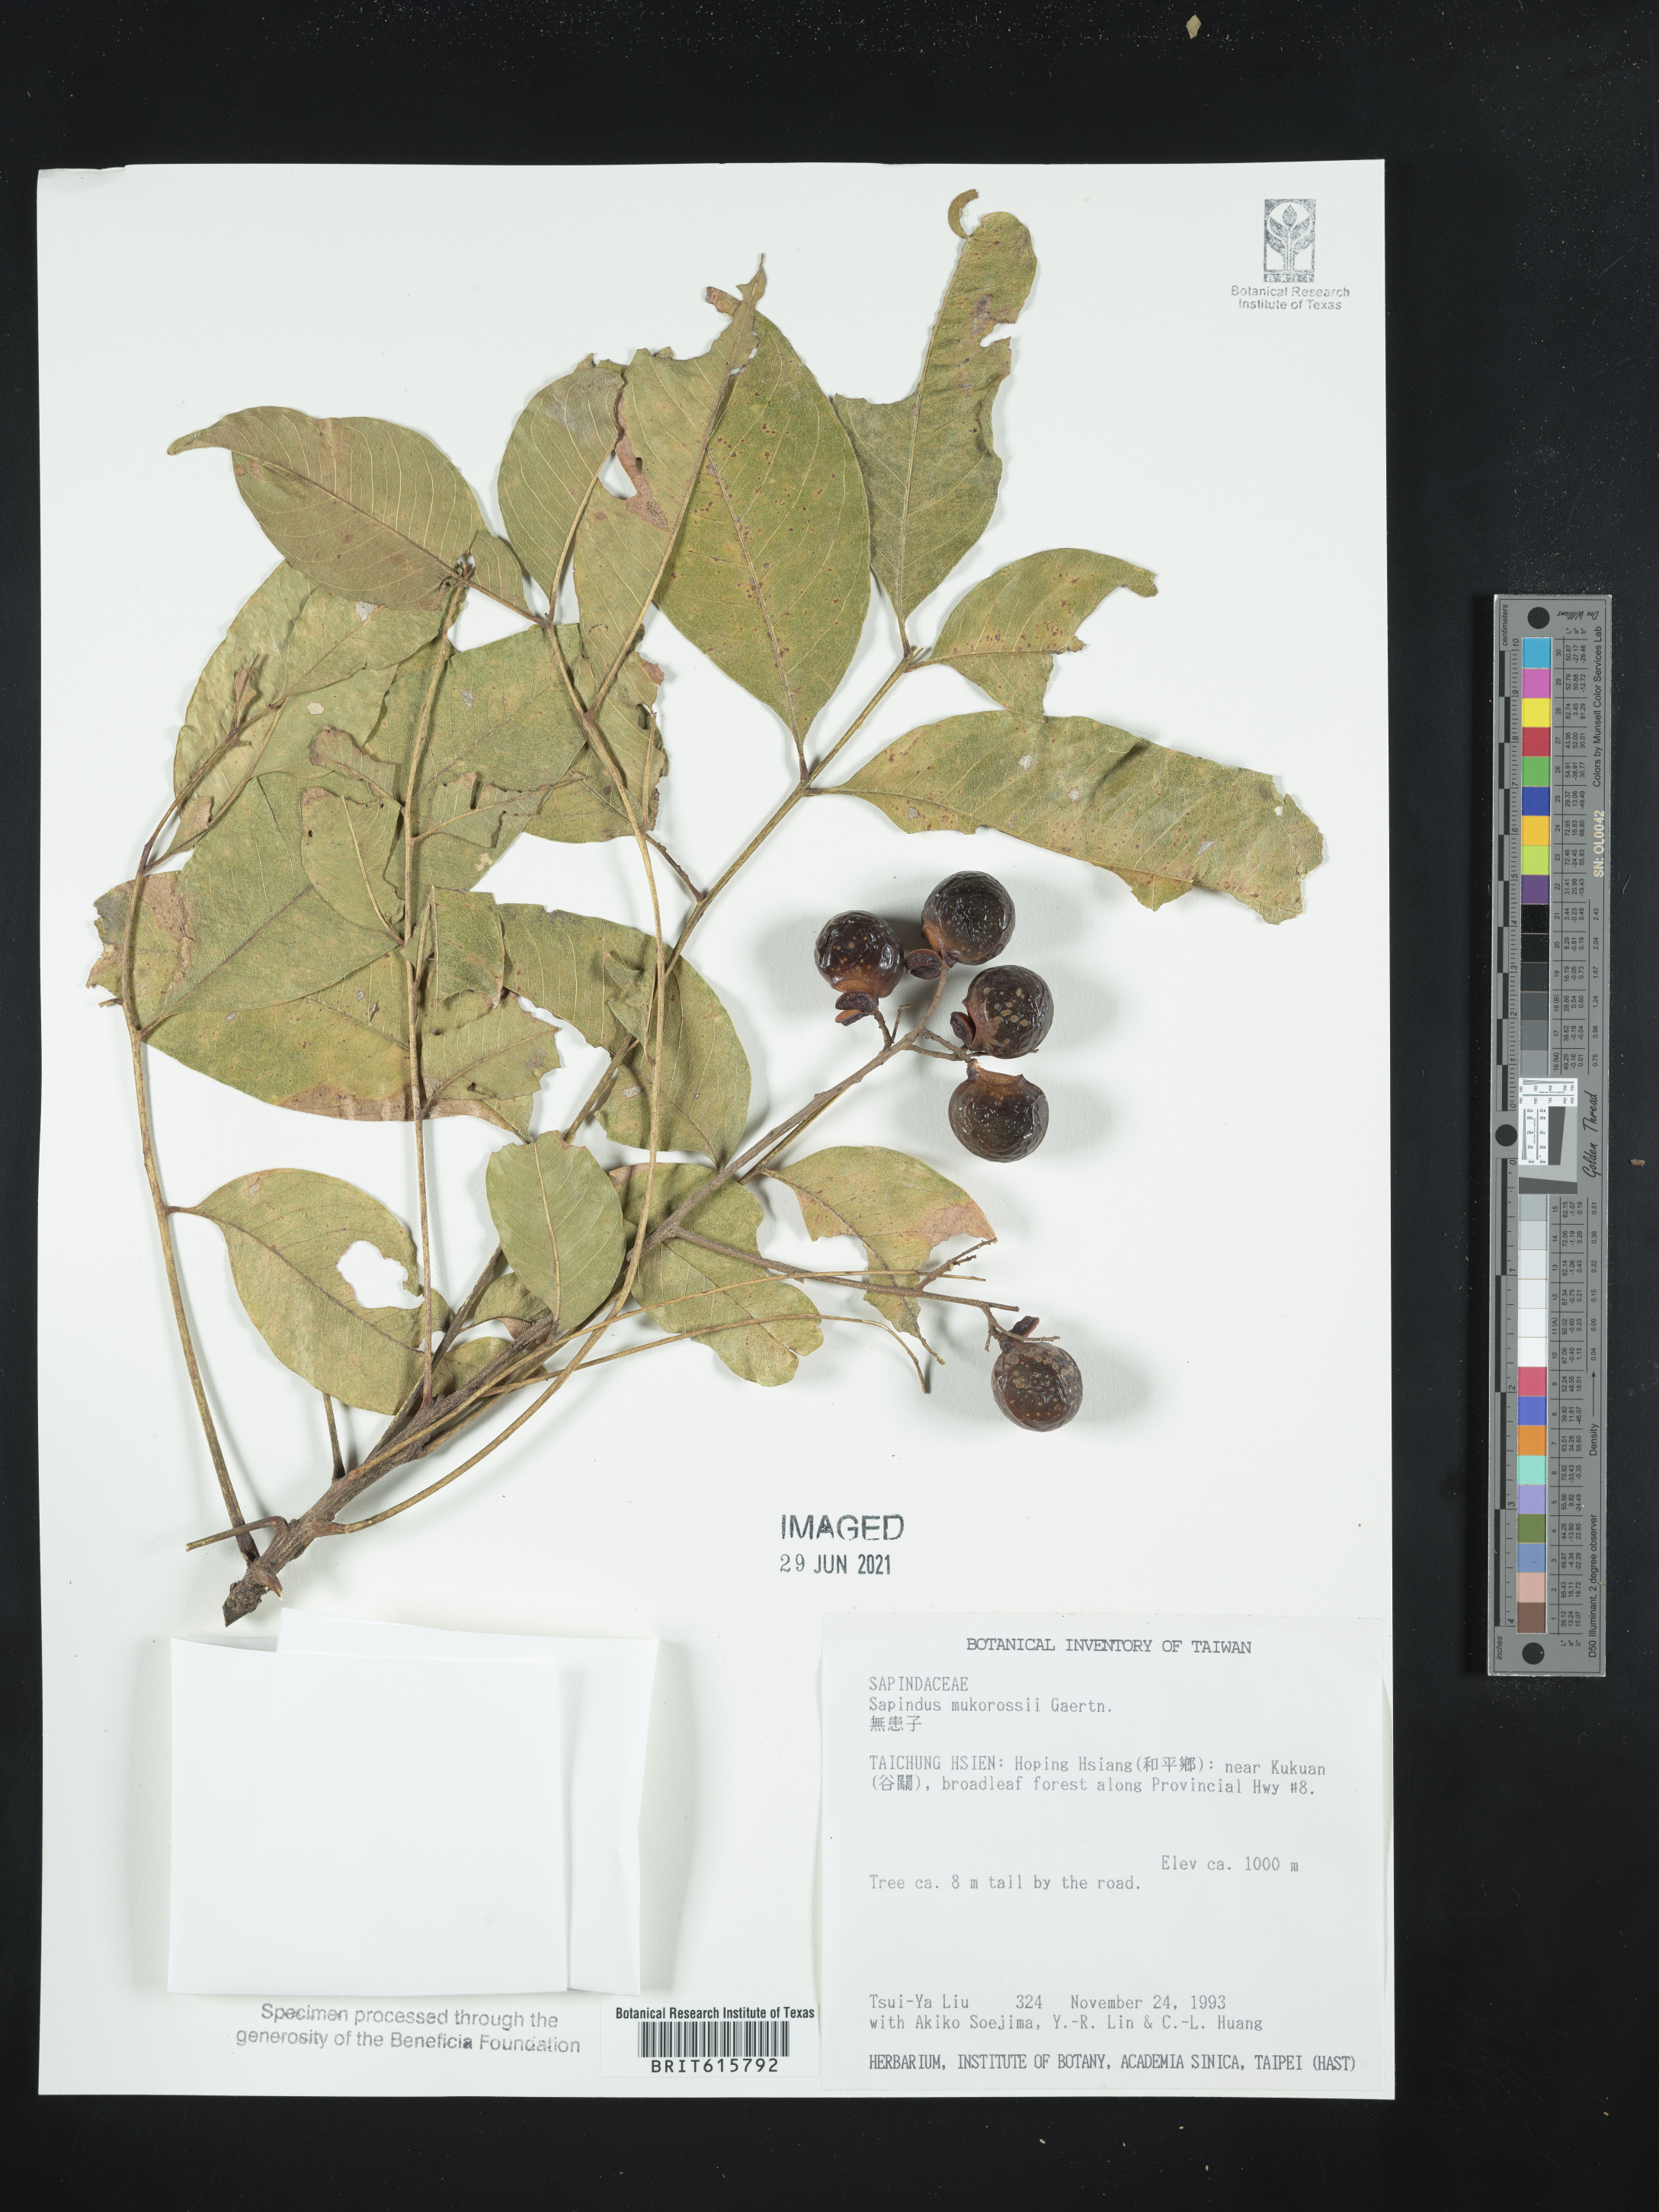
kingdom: Plantae
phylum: Tracheophyta
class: Magnoliopsida
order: Sapindales
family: Sapindaceae
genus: Sapindus
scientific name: Sapindus mukorossi
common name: Chinese soapberry
